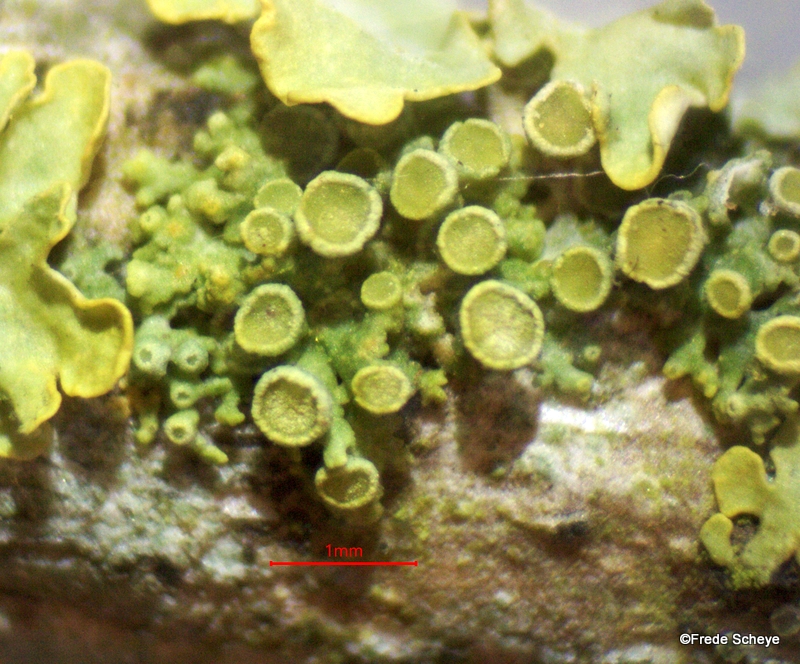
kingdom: Fungi
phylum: Ascomycota
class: Lecanoromycetes
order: Teloschistales
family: Teloschistaceae
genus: Polycauliona
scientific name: Polycauliona polycarpa
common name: mangefrugtet orangelav
